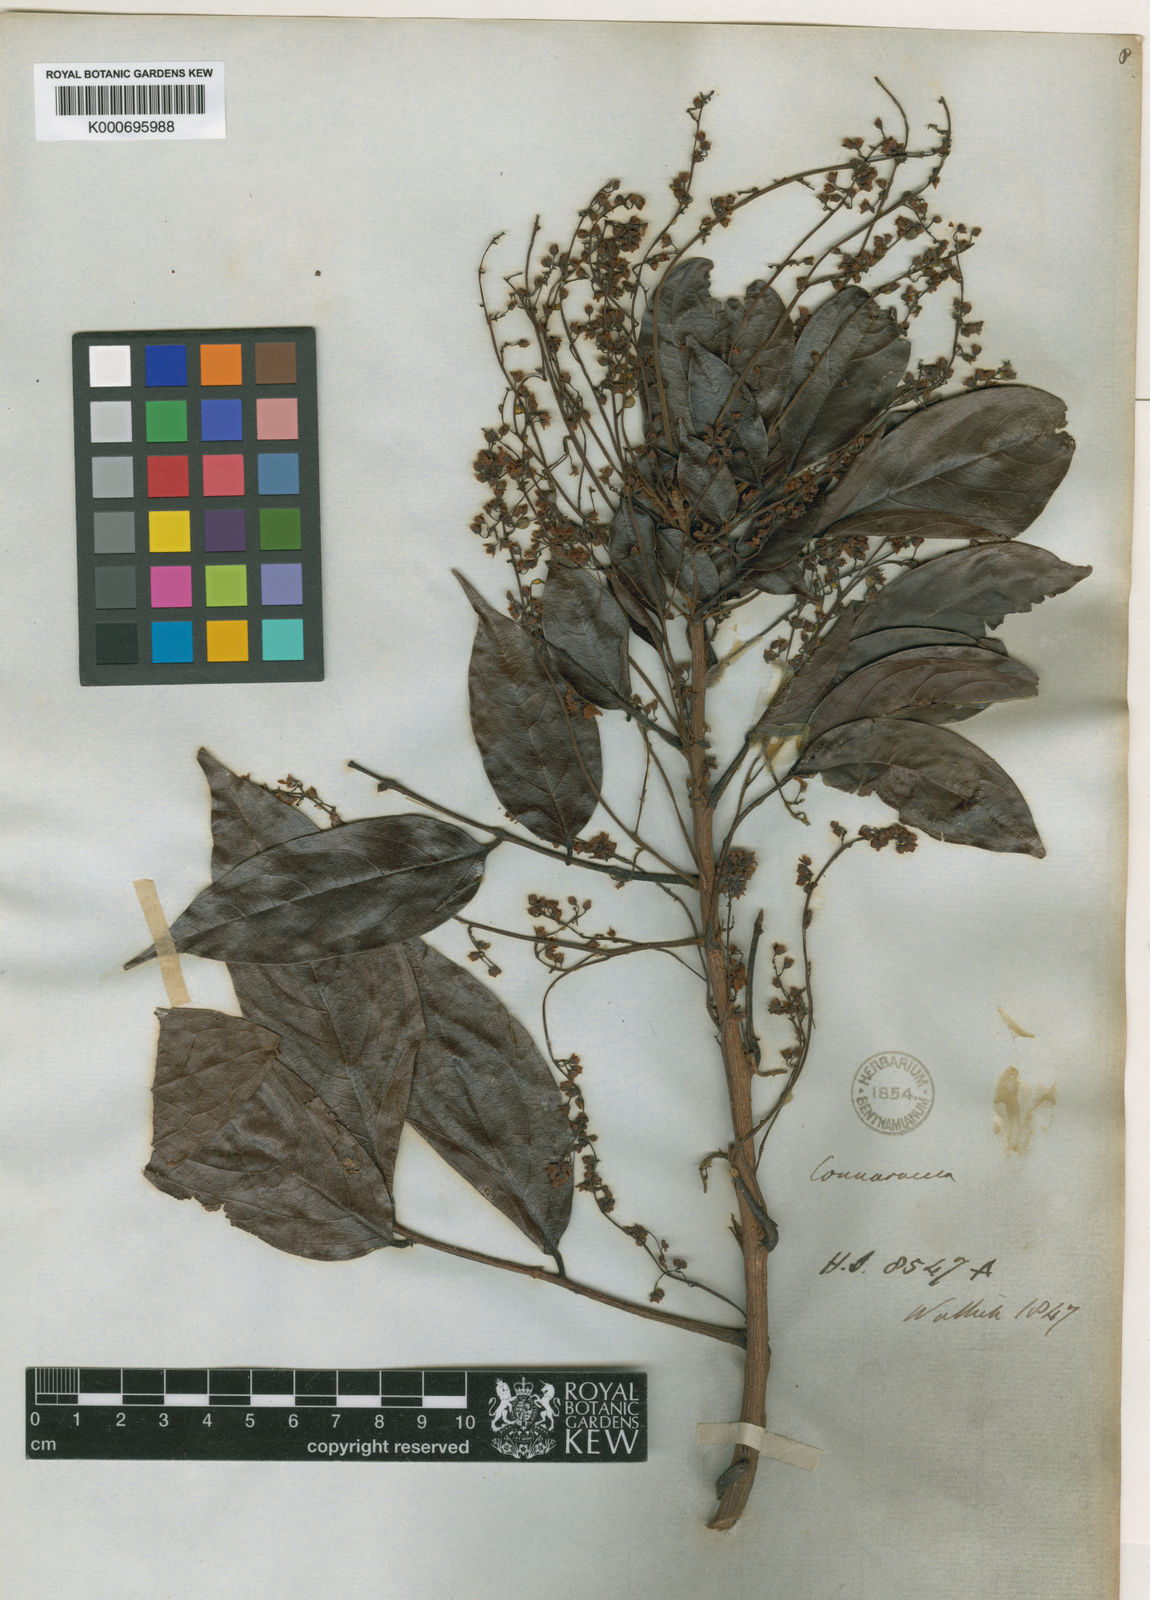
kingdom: Plantae
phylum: Tracheophyta
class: Magnoliopsida
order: Oxalidales
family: Connaraceae
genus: Rourea
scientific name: Rourea minor
